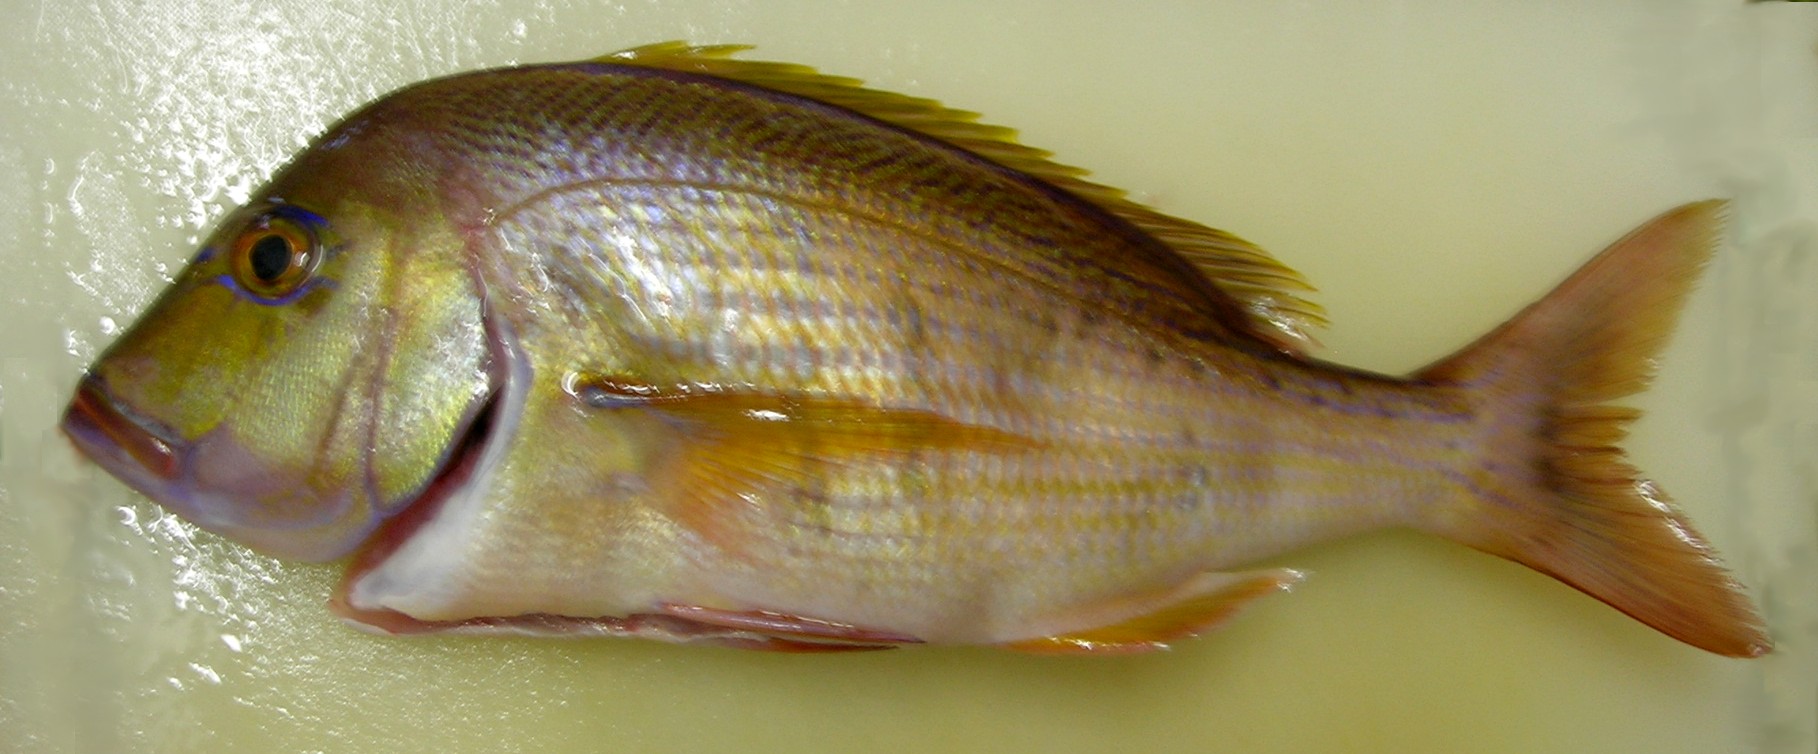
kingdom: Animalia
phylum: Chordata
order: Perciformes
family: Sparidae
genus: Polysteganus
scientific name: Polysteganus praeorbitalis
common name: Scotsman
